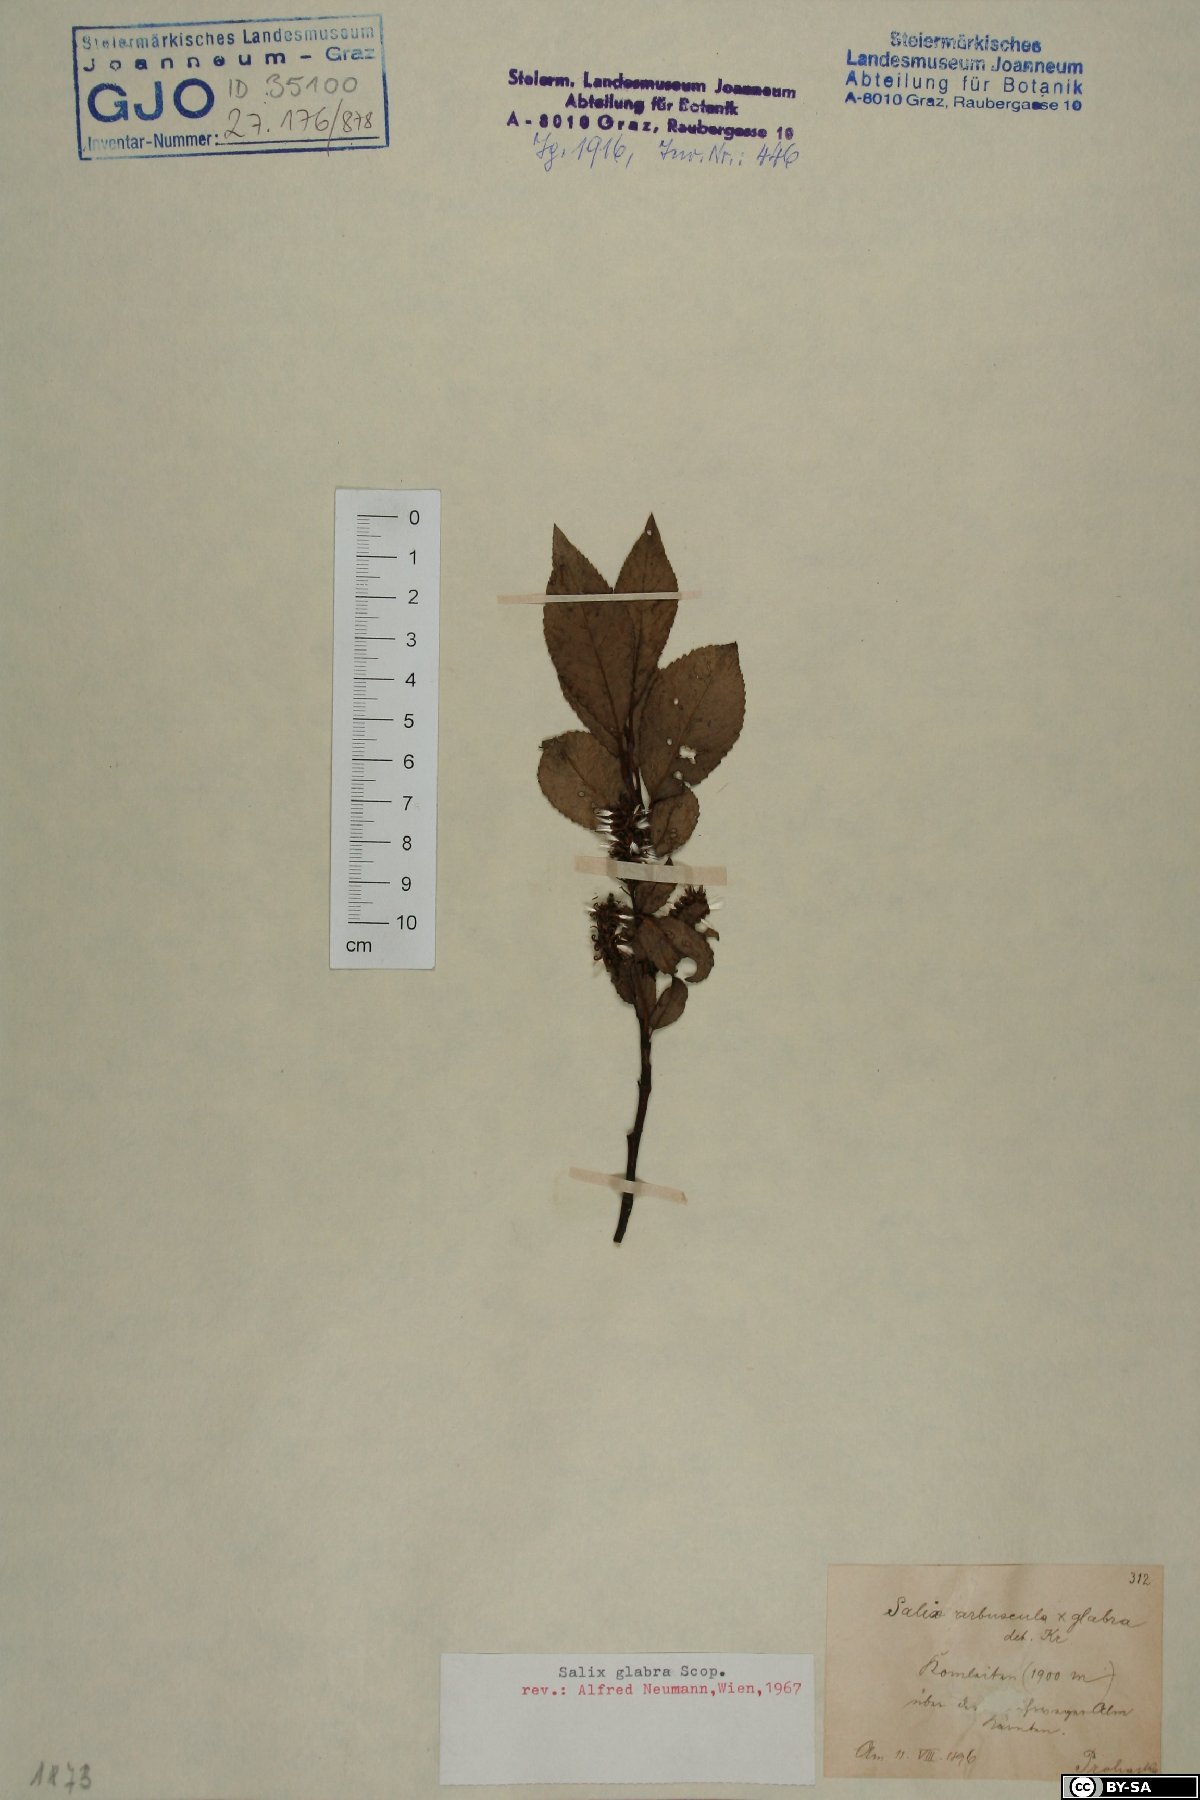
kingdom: Plantae
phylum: Tracheophyta
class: Magnoliopsida
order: Malpighiales
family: Salicaceae
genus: Salix
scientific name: Salix glabra
